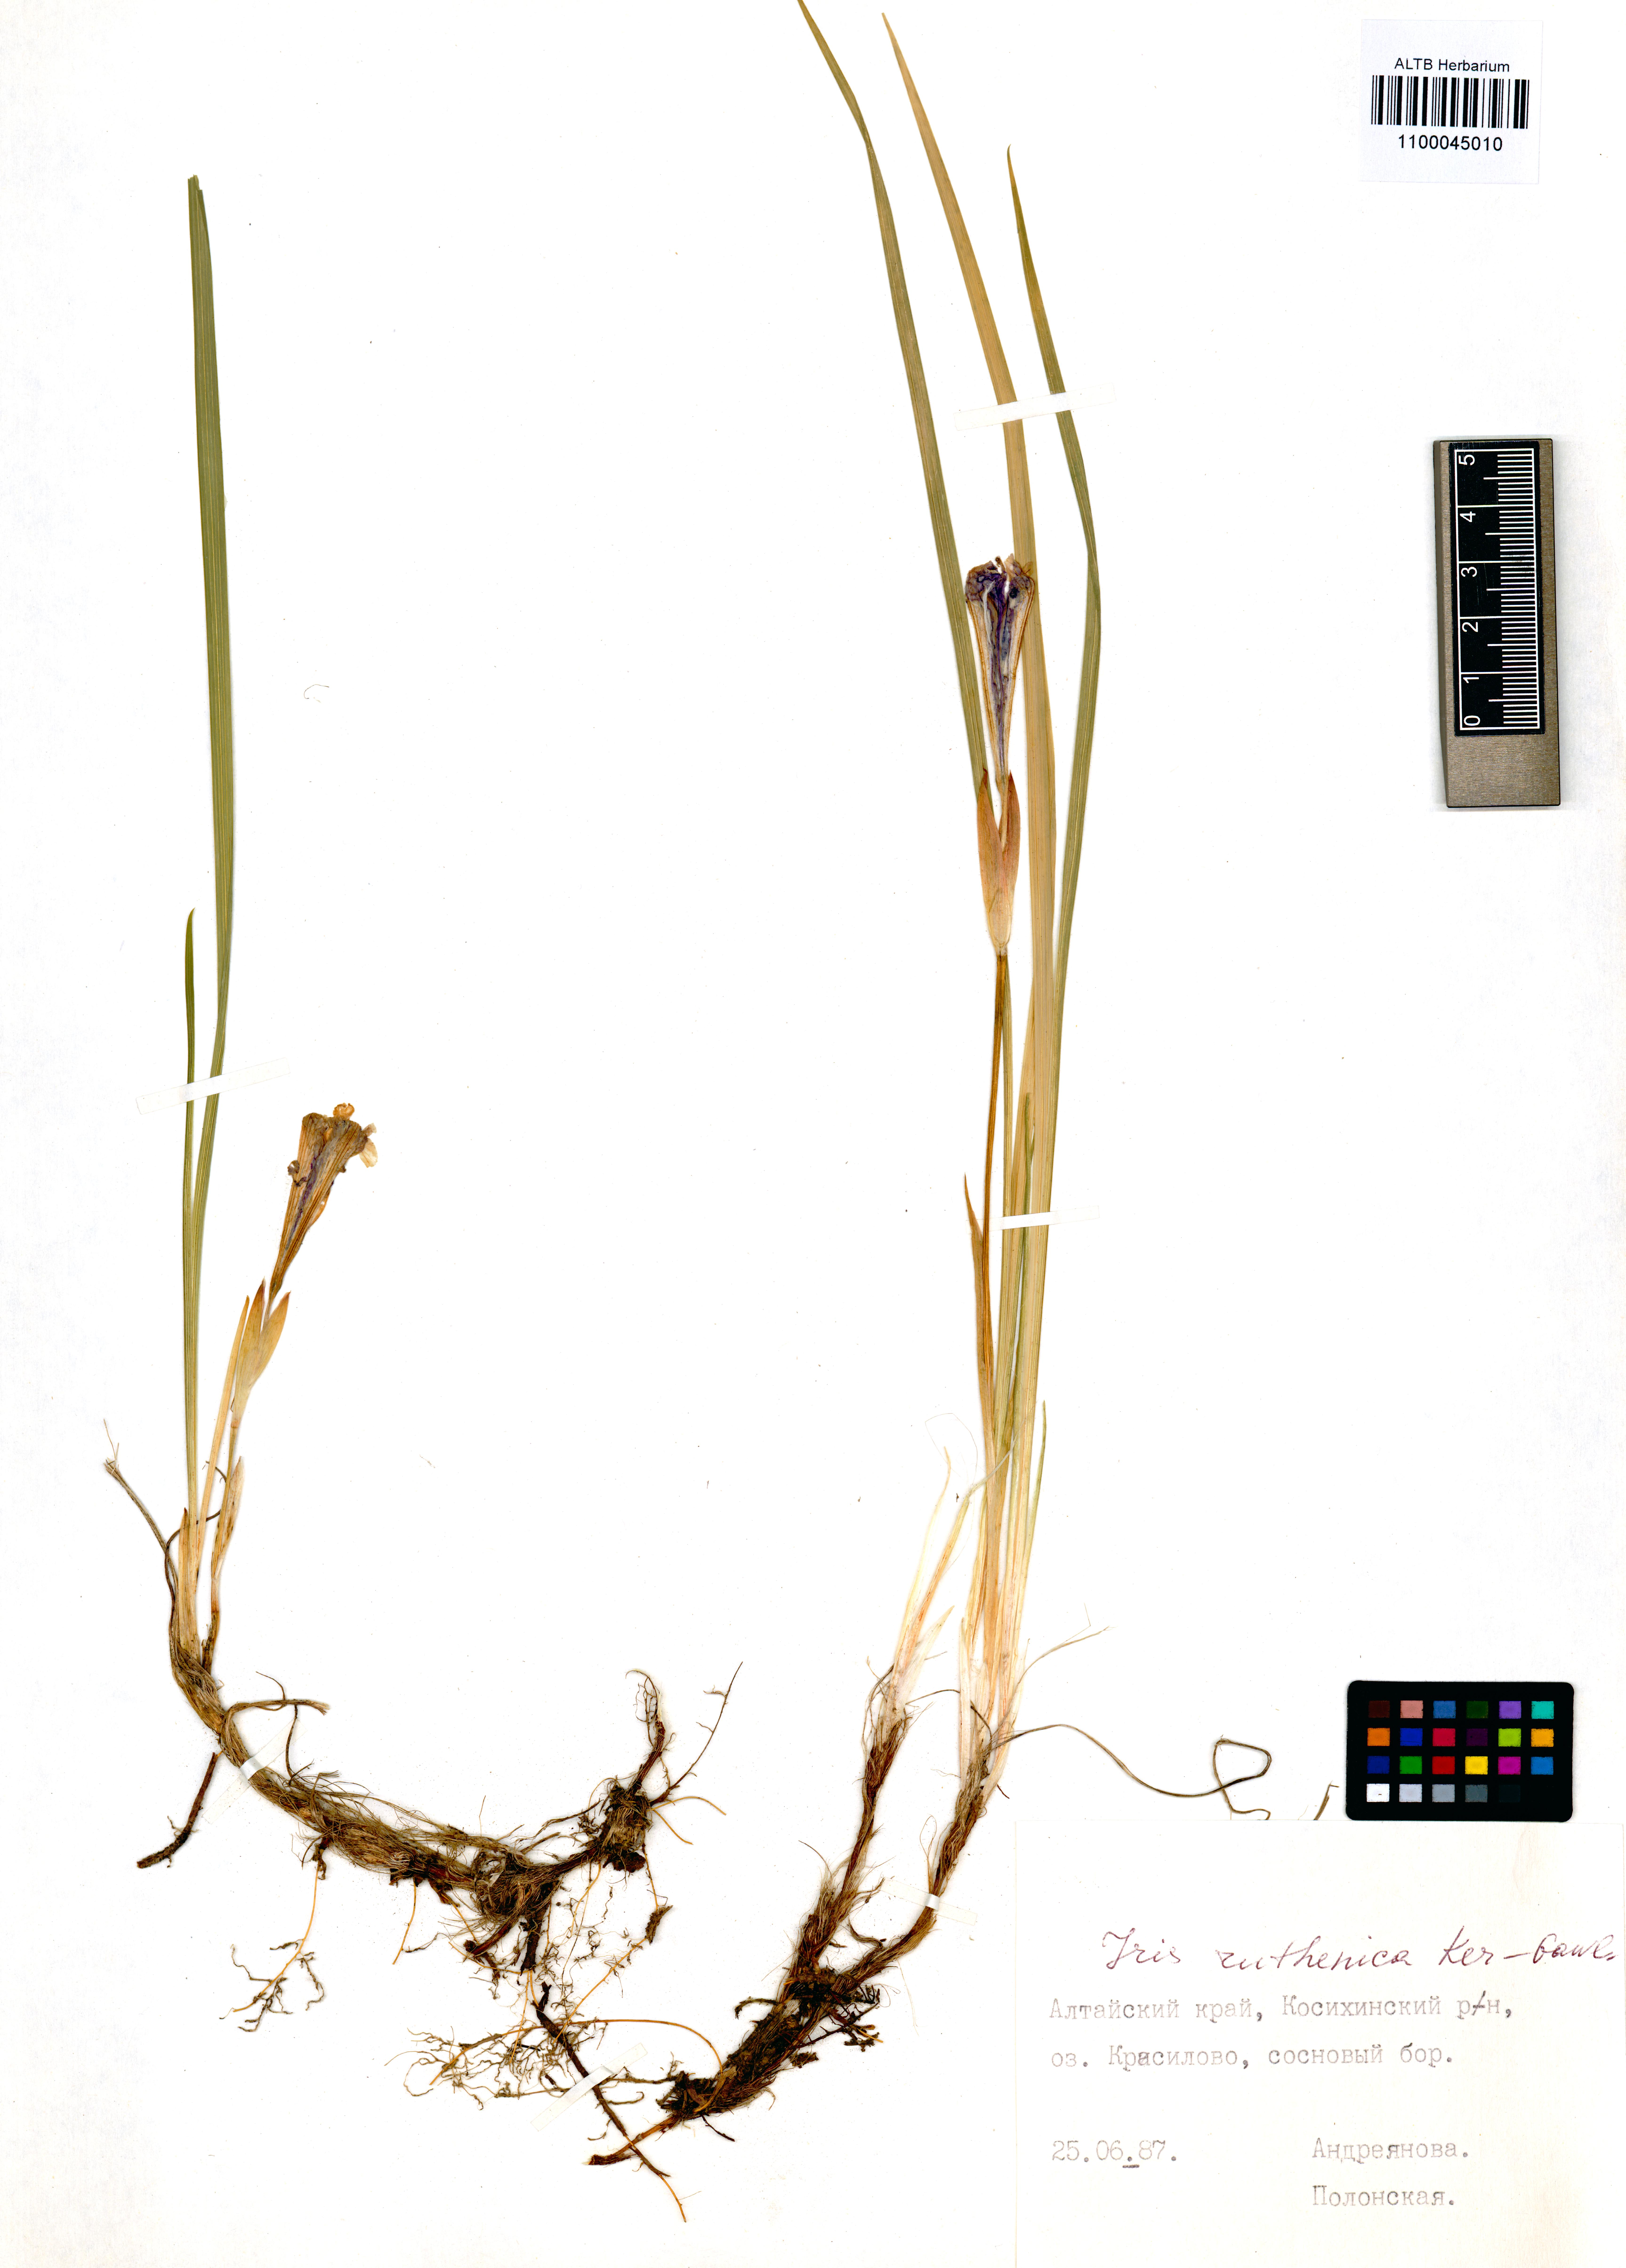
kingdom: Plantae
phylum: Tracheophyta
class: Liliopsida
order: Asparagales
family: Iridaceae
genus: Iris
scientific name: Iris ruthenica
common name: Purple-bract iris
